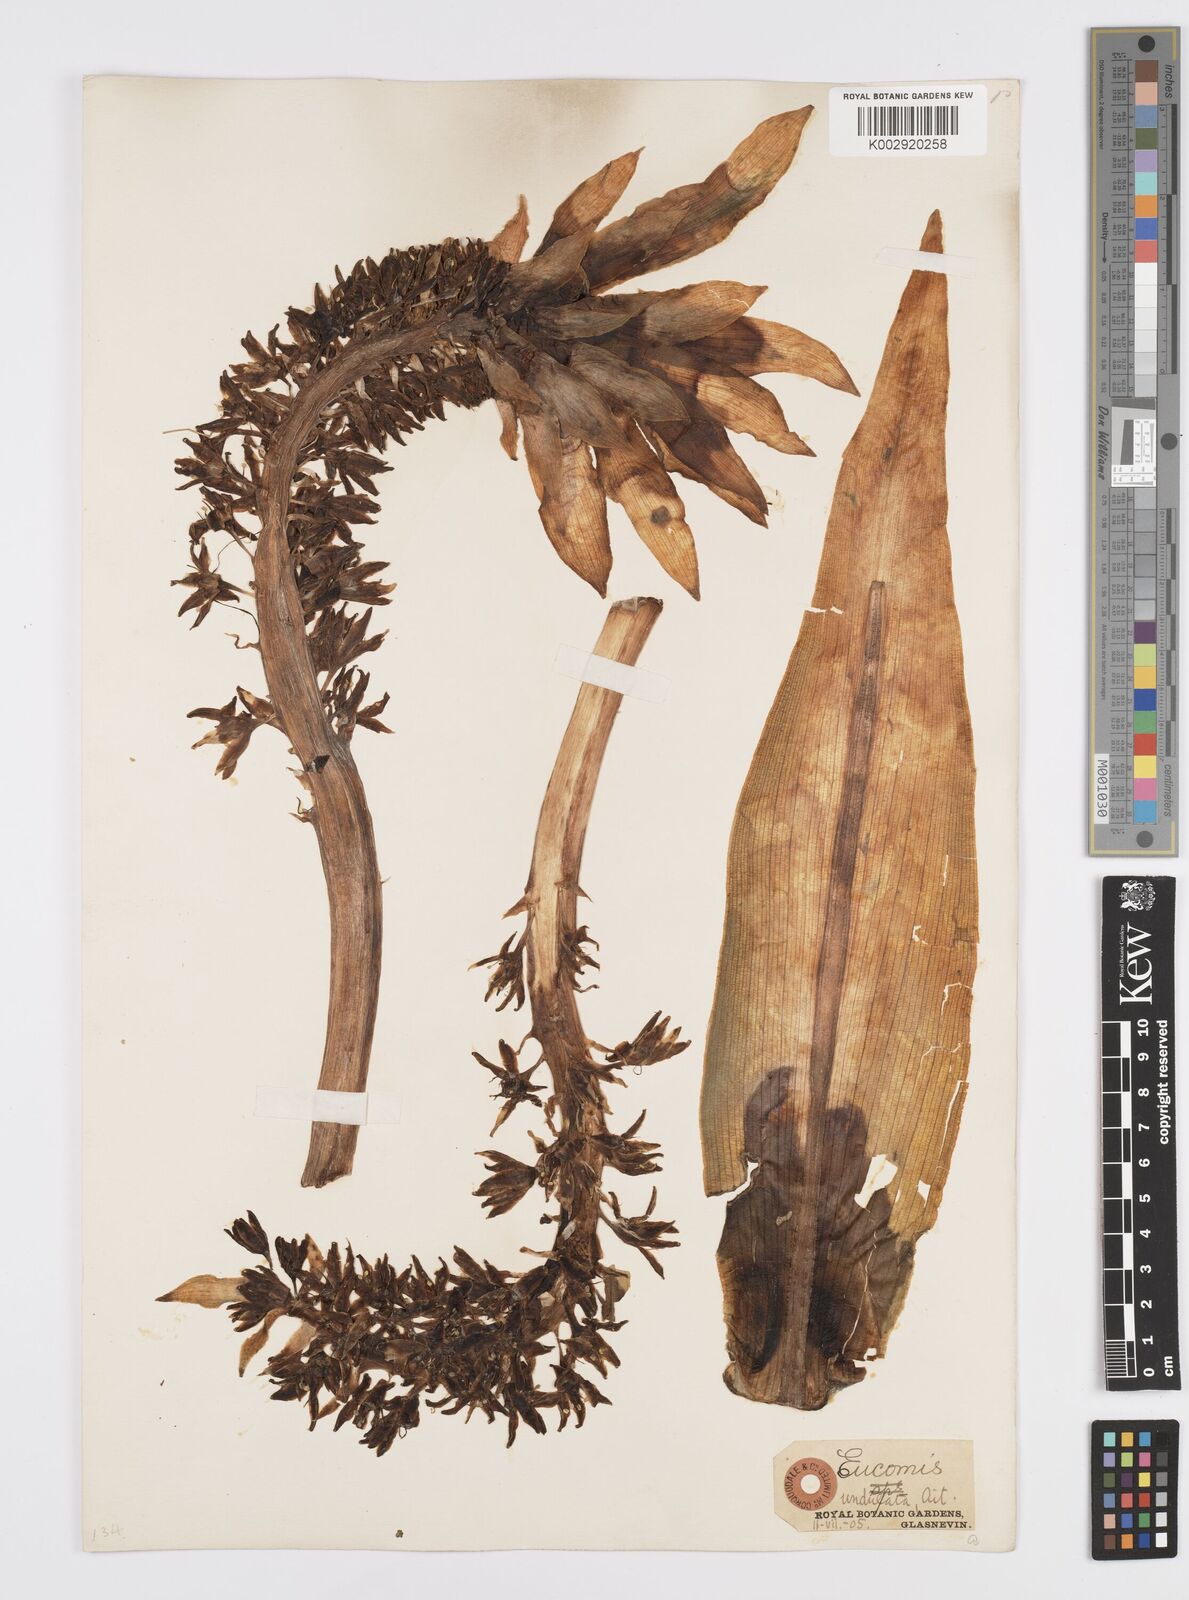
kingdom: Plantae
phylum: Tracheophyta
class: Liliopsida
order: Asparagales
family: Asparagaceae
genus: Eucomis
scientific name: Eucomis autumnalis
